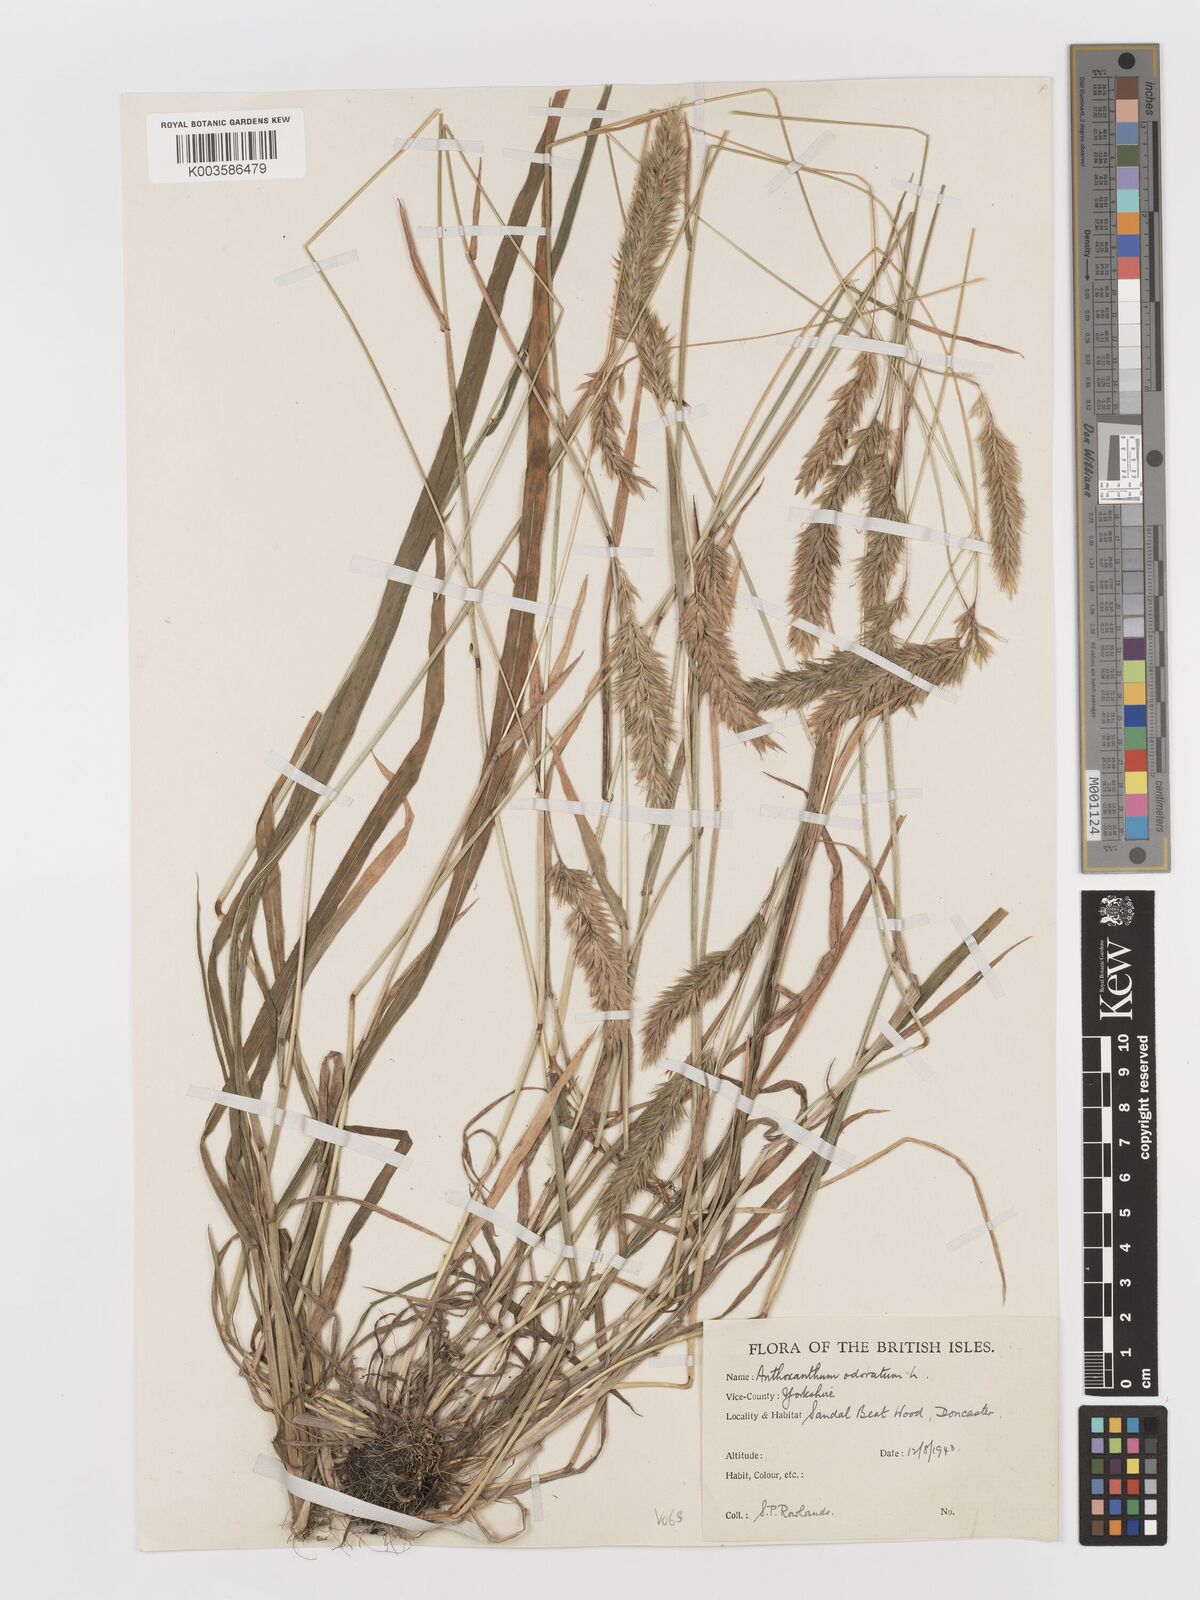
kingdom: Plantae
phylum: Tracheophyta
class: Liliopsida
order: Poales
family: Poaceae
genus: Anthoxanthum
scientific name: Anthoxanthum odoratum
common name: Sweet vernalgrass
